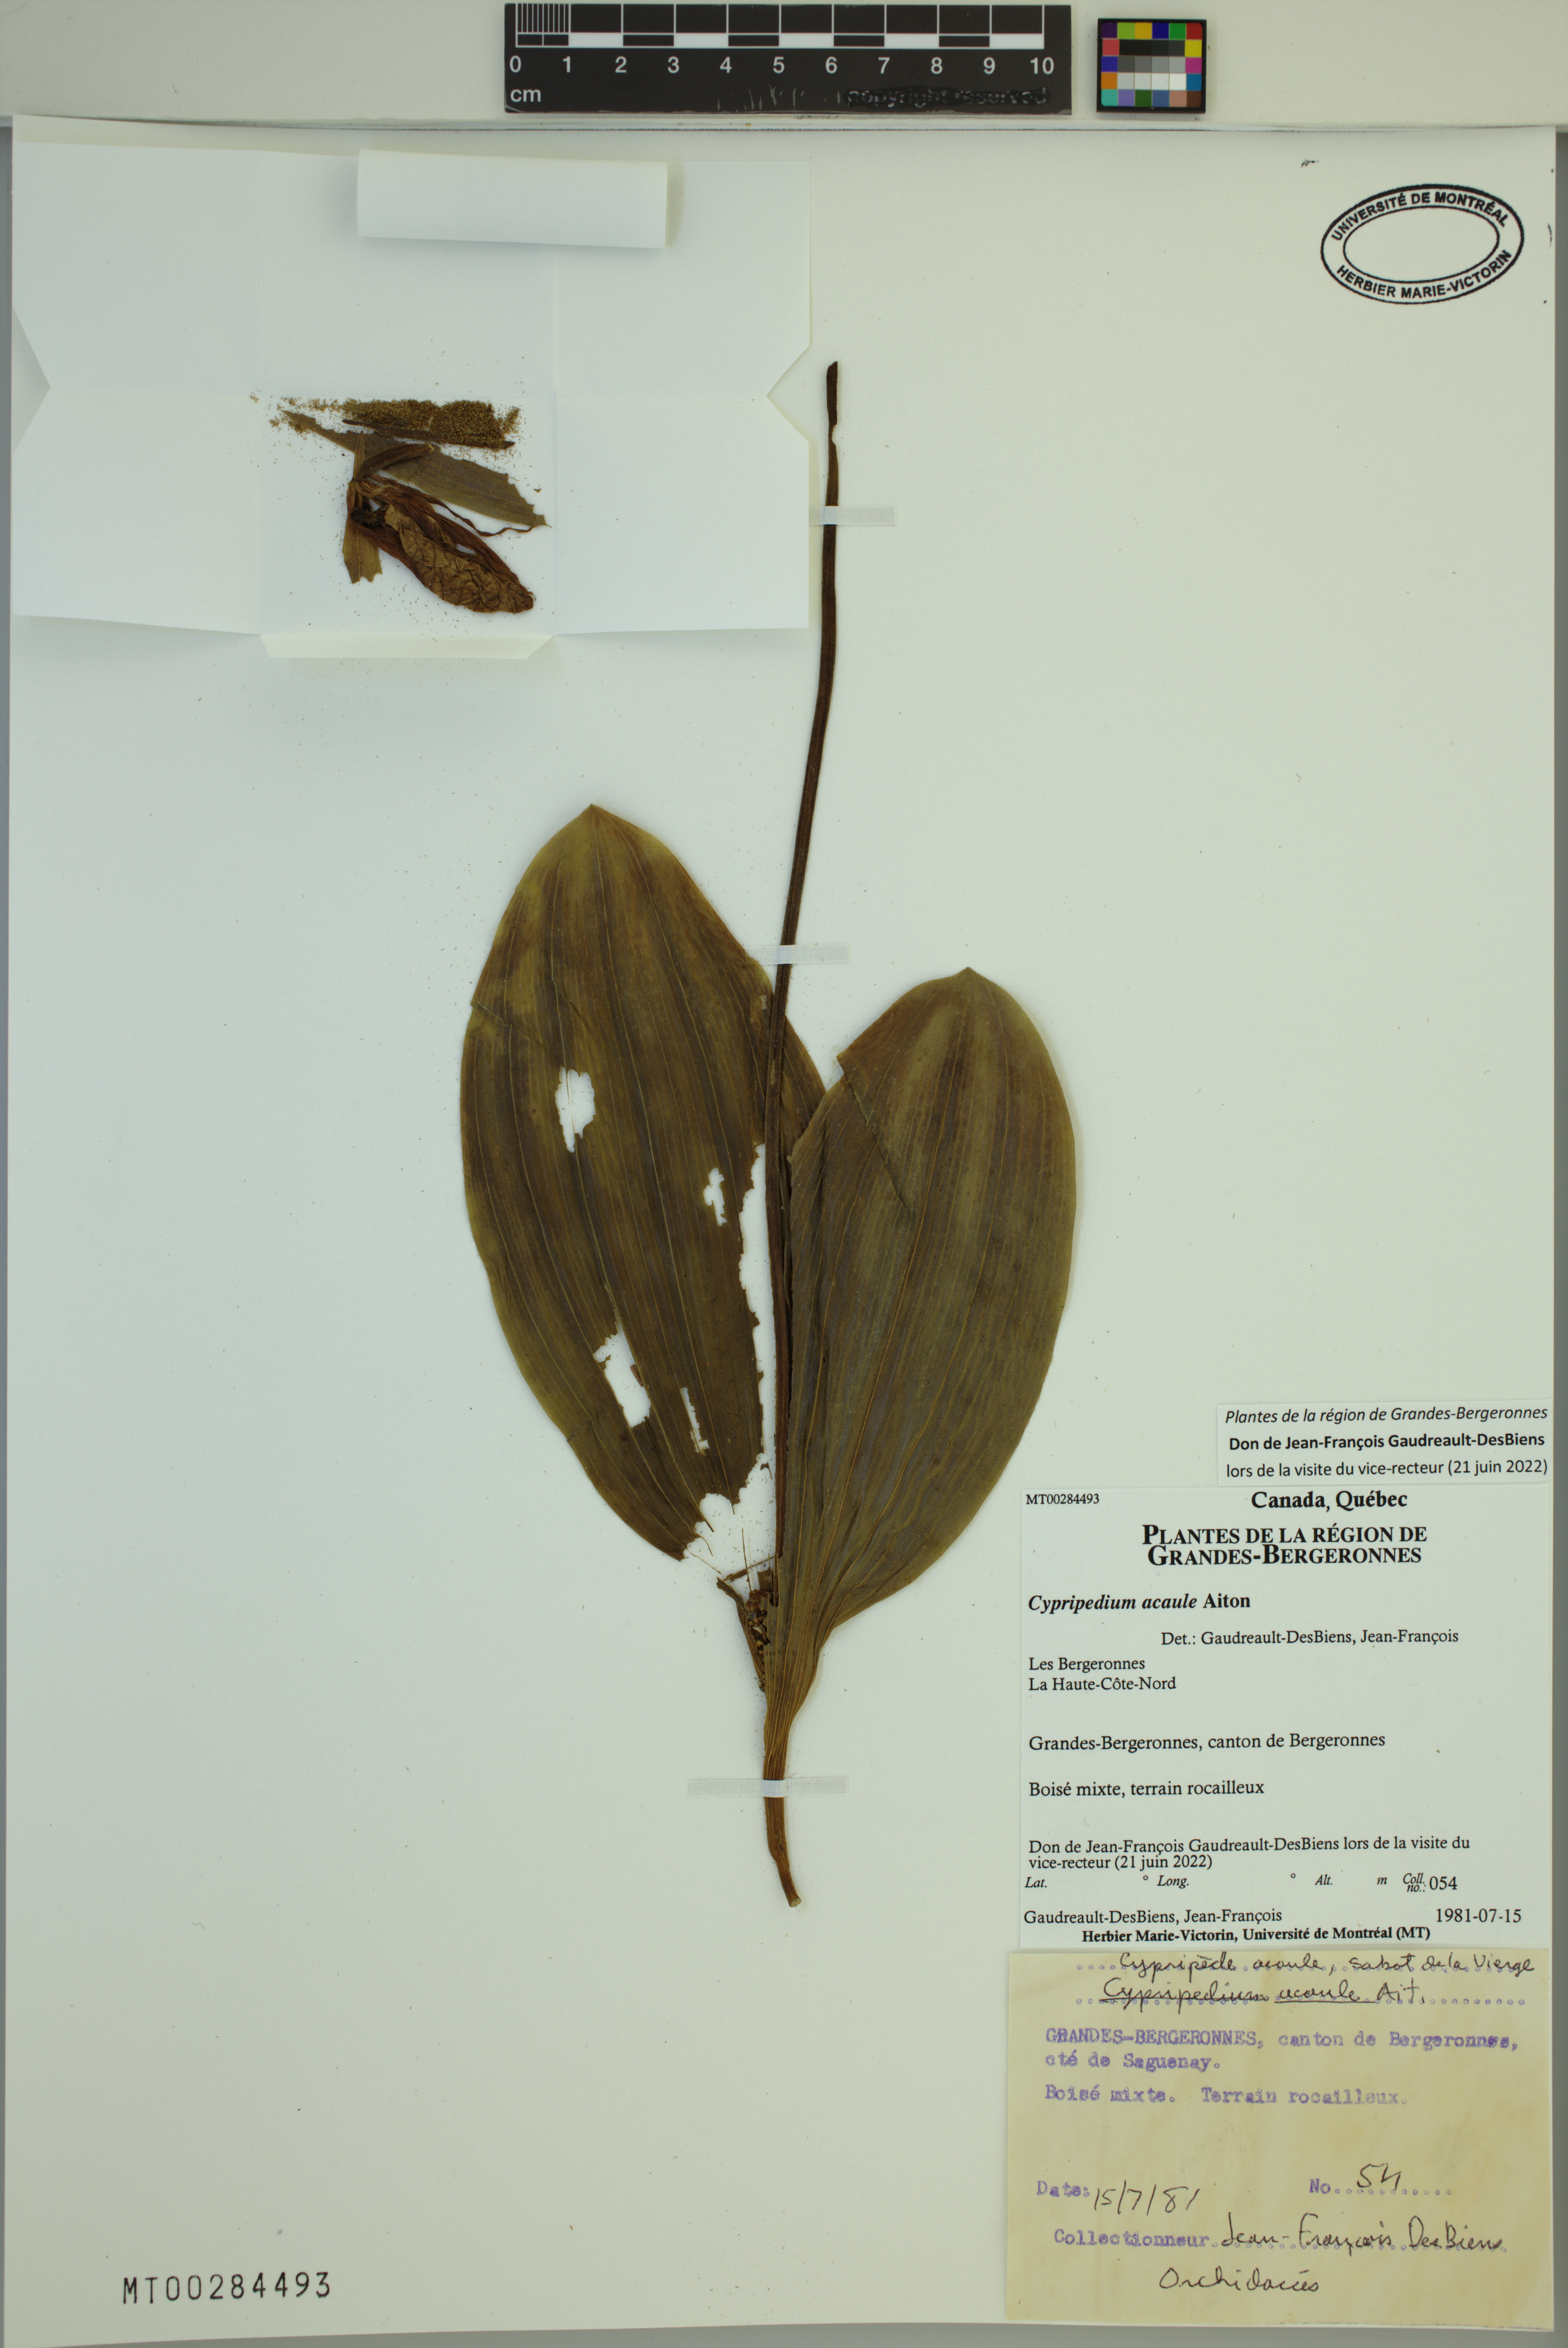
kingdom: Plantae
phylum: Tracheophyta
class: Liliopsida
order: Asparagales
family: Orchidaceae
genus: Cypripedium
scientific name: Cypripedium acaule
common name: Pink lady's-slipper
